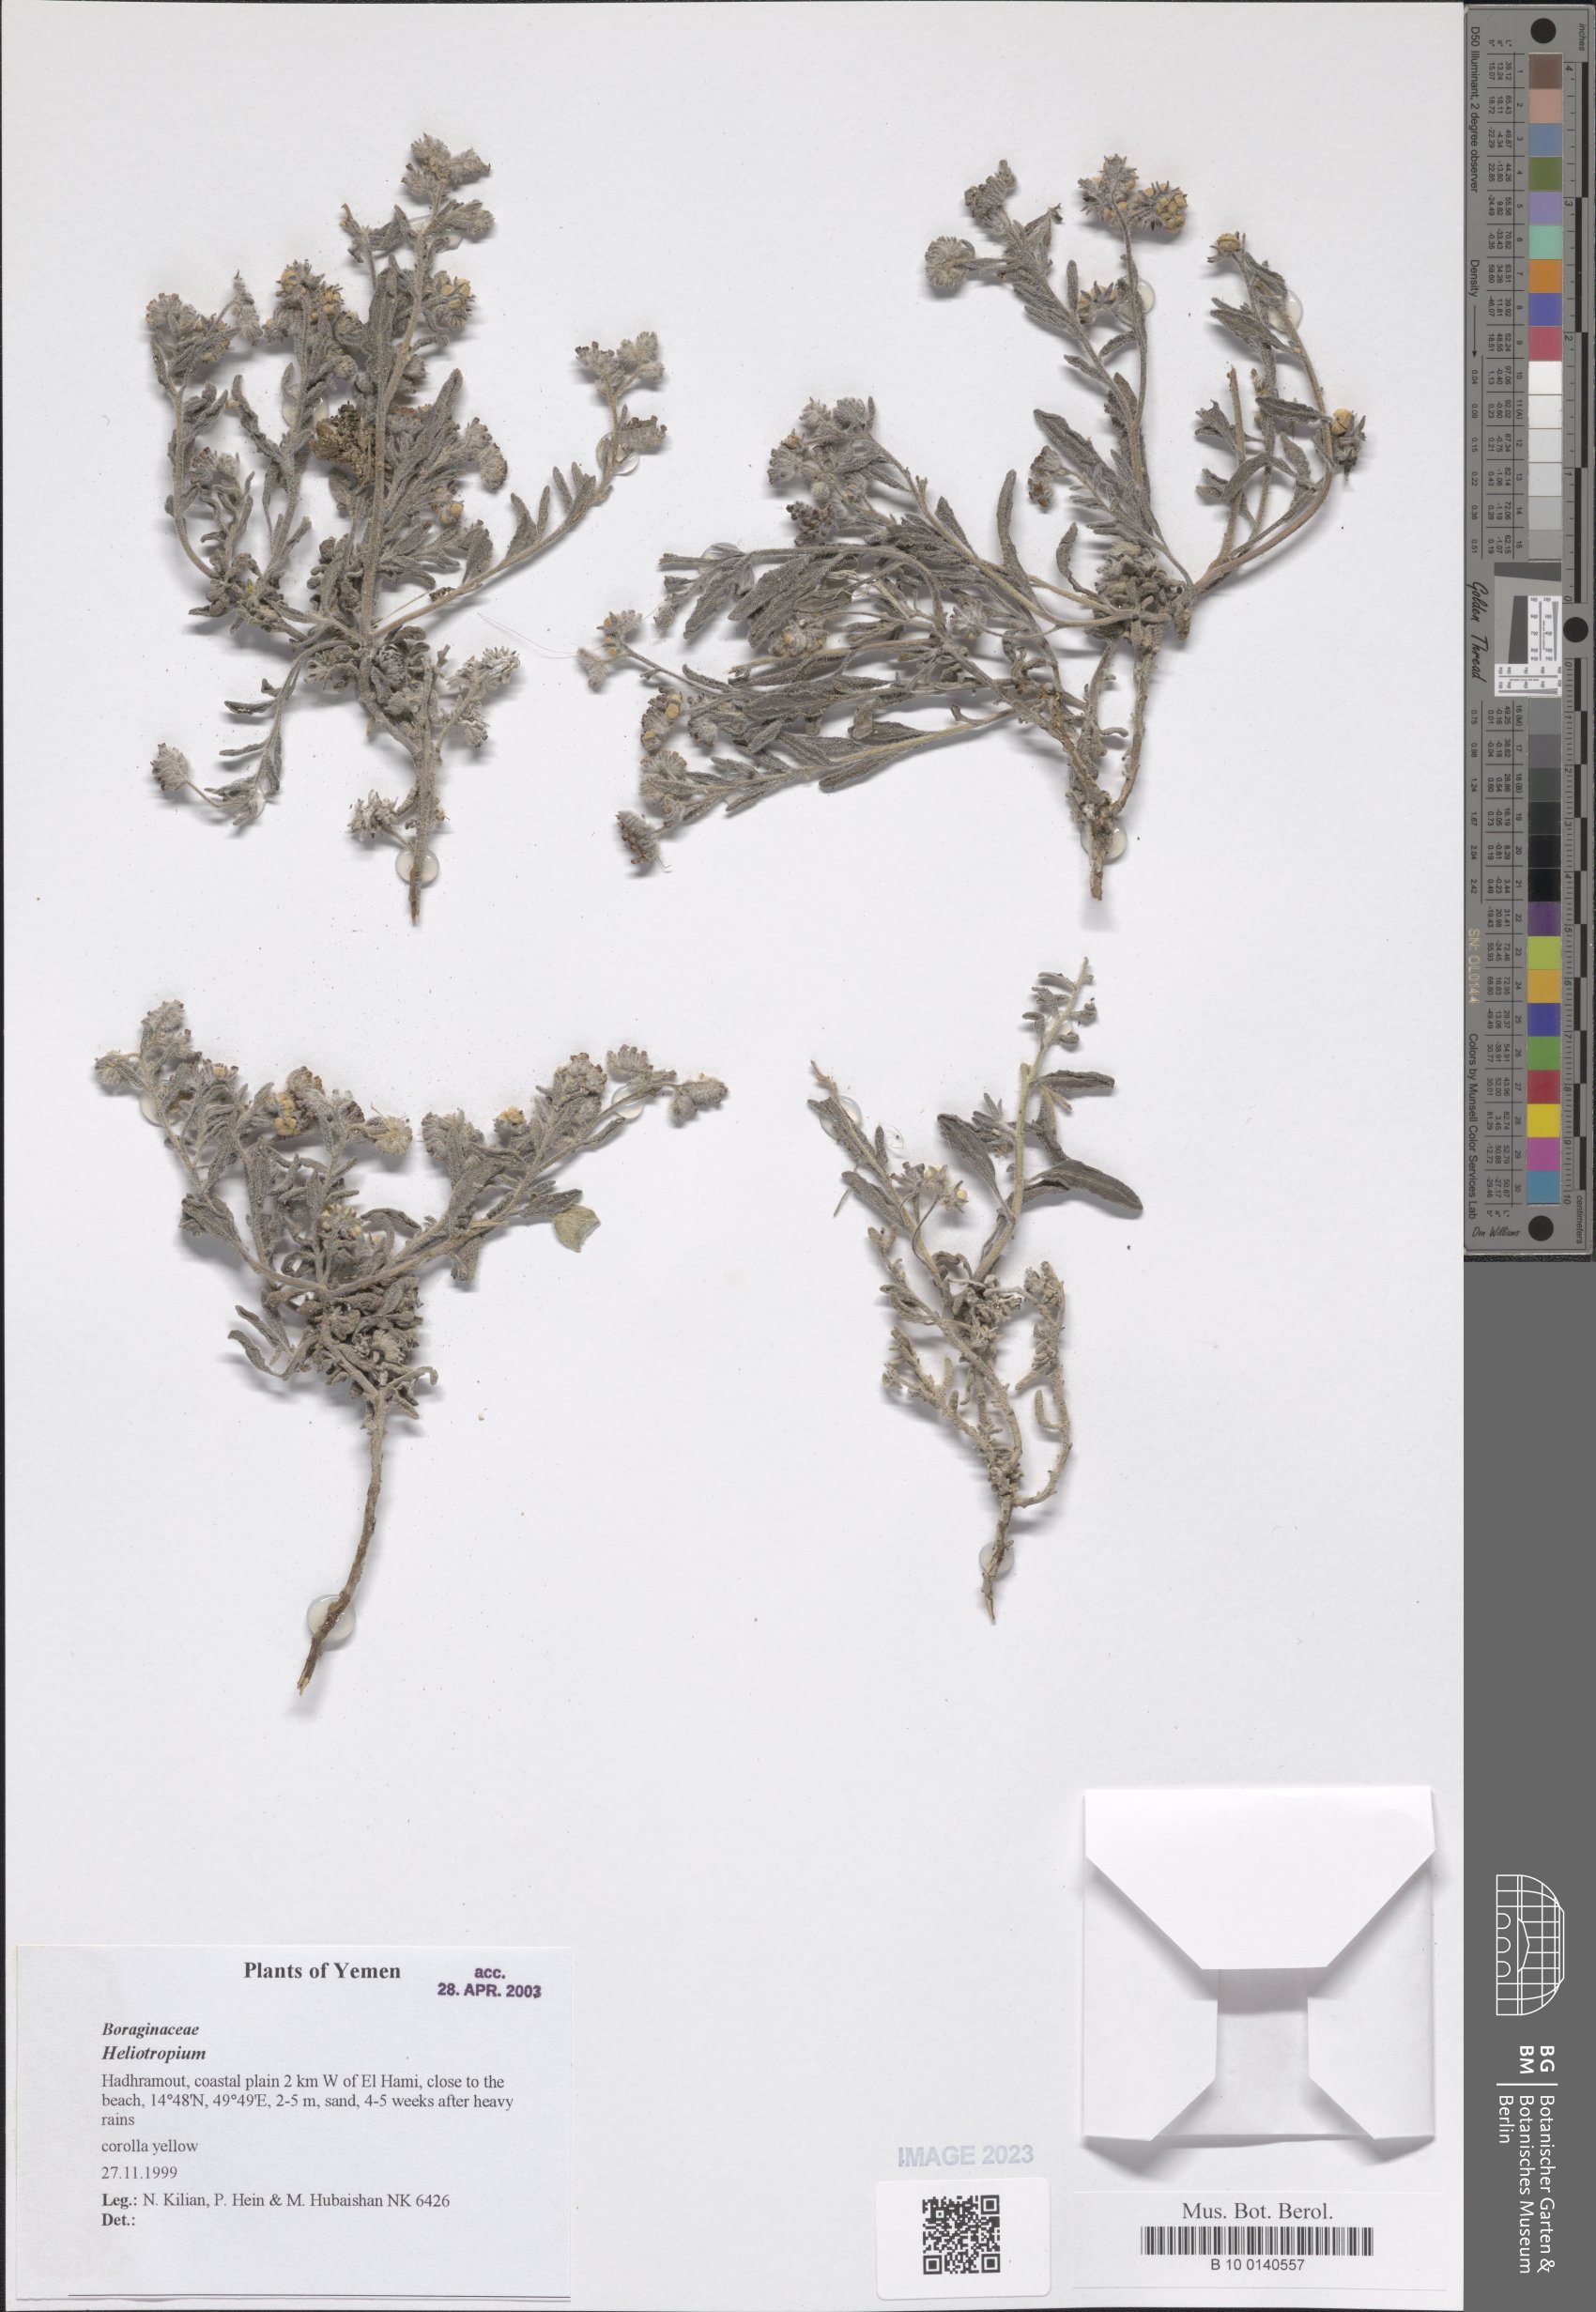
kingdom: Plantae
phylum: Tracheophyta
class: Magnoliopsida
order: Boraginales
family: Heliotropiaceae
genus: Heliotropium
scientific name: Heliotropium
